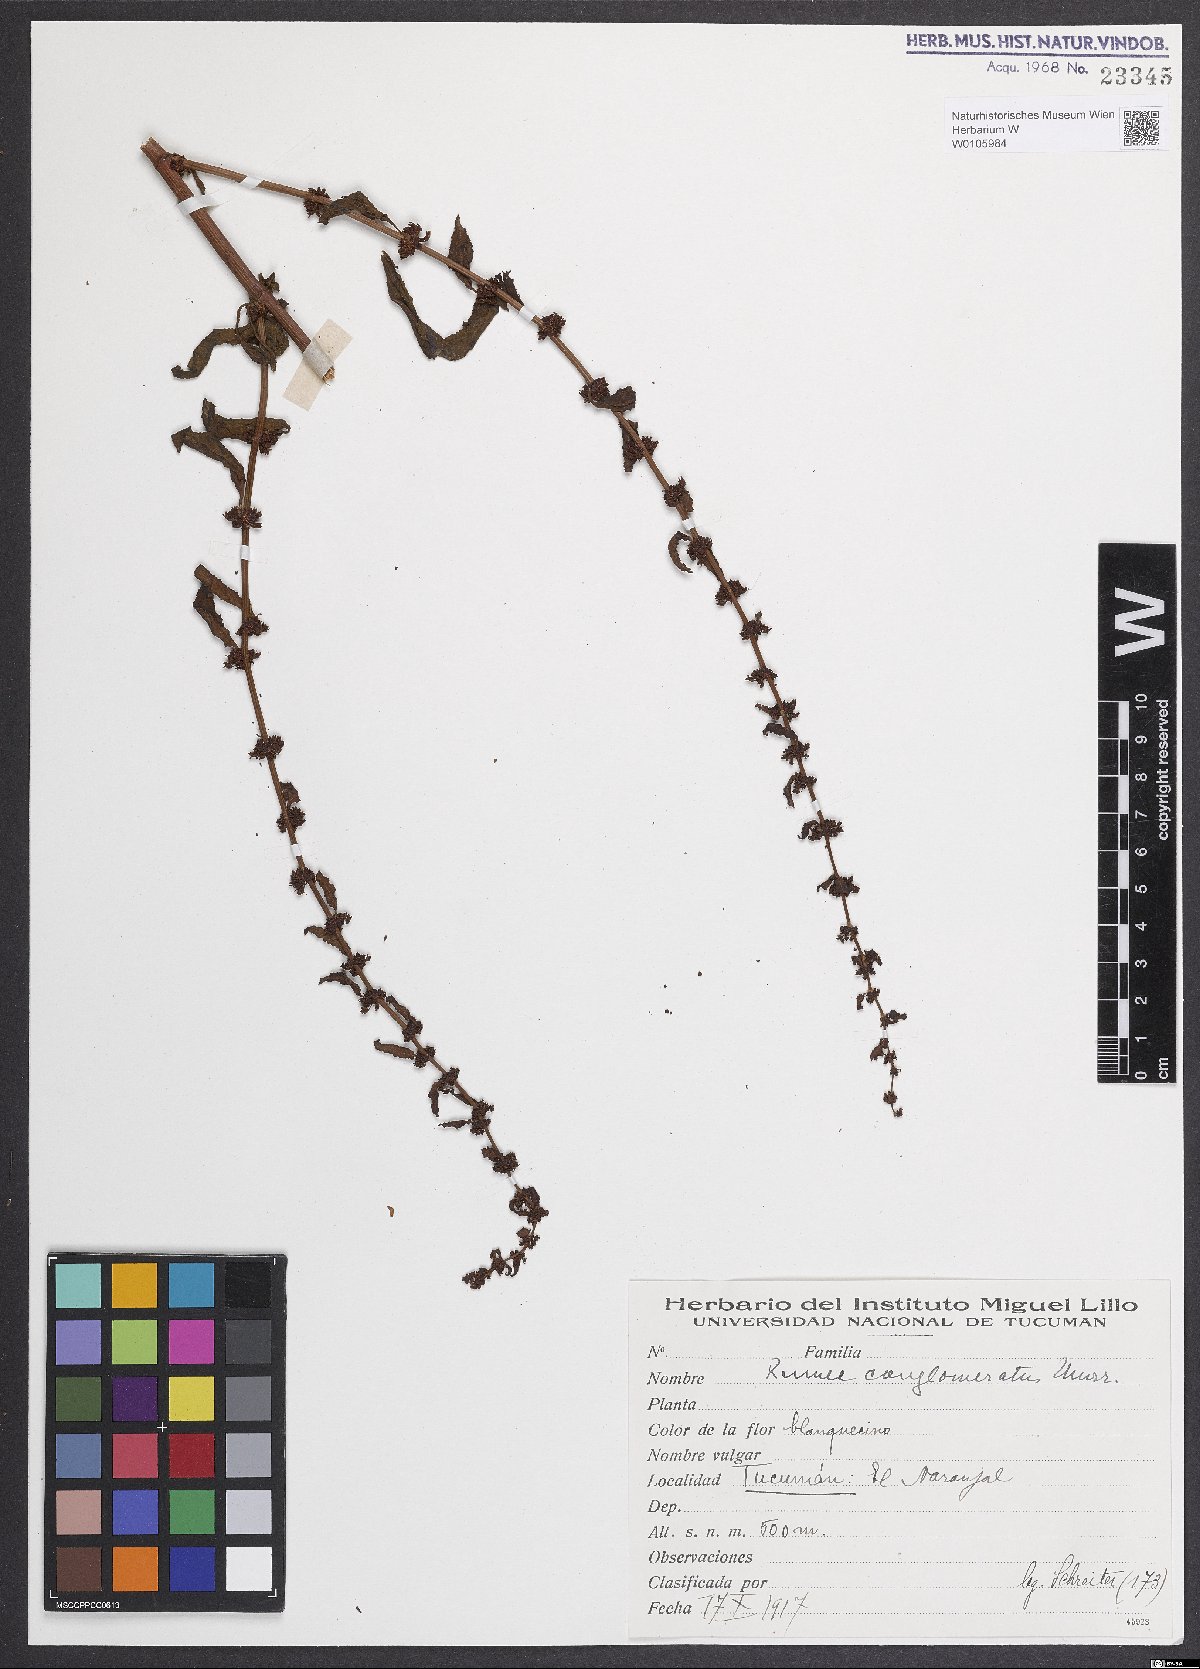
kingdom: Plantae
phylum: Tracheophyta
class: Magnoliopsida
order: Caryophyllales
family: Polygonaceae
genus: Rumex
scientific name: Rumex conglomeratus
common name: Clustered dock
